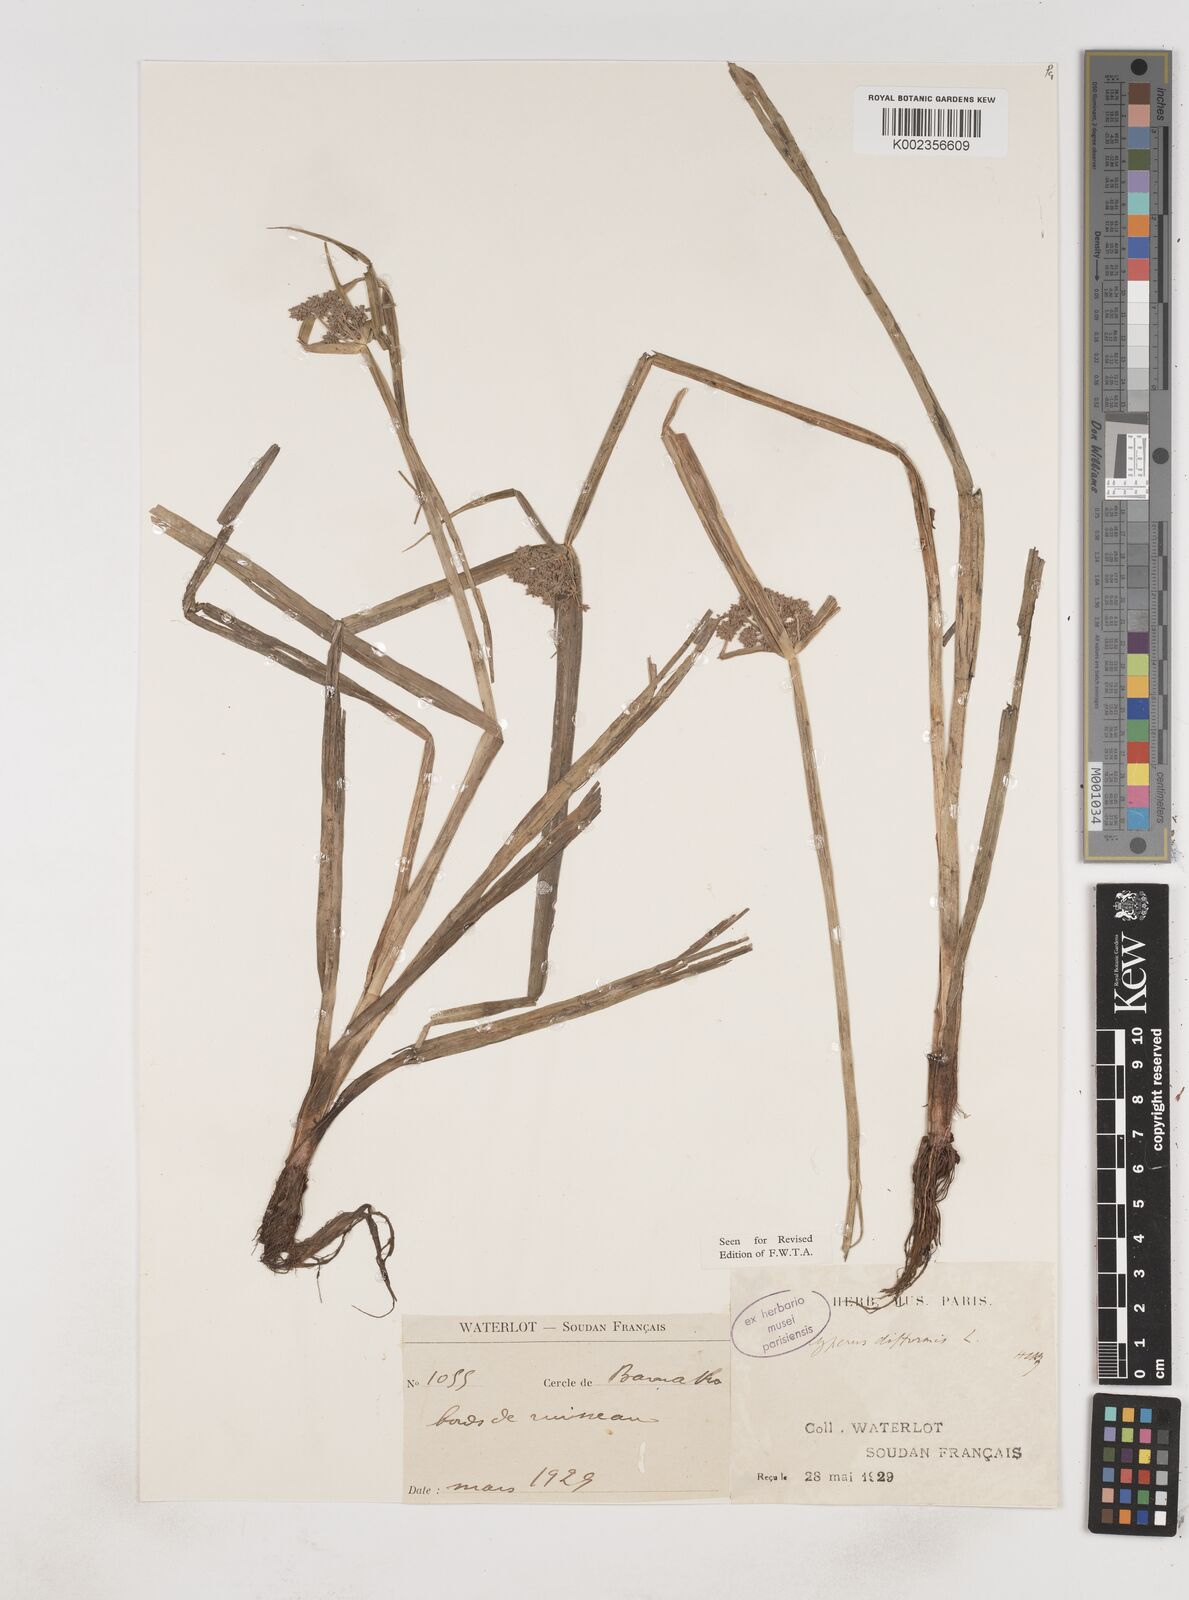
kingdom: Plantae
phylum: Tracheophyta
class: Liliopsida
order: Poales
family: Cyperaceae
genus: Cyperus
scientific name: Cyperus difformis
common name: Variable flatsedge
